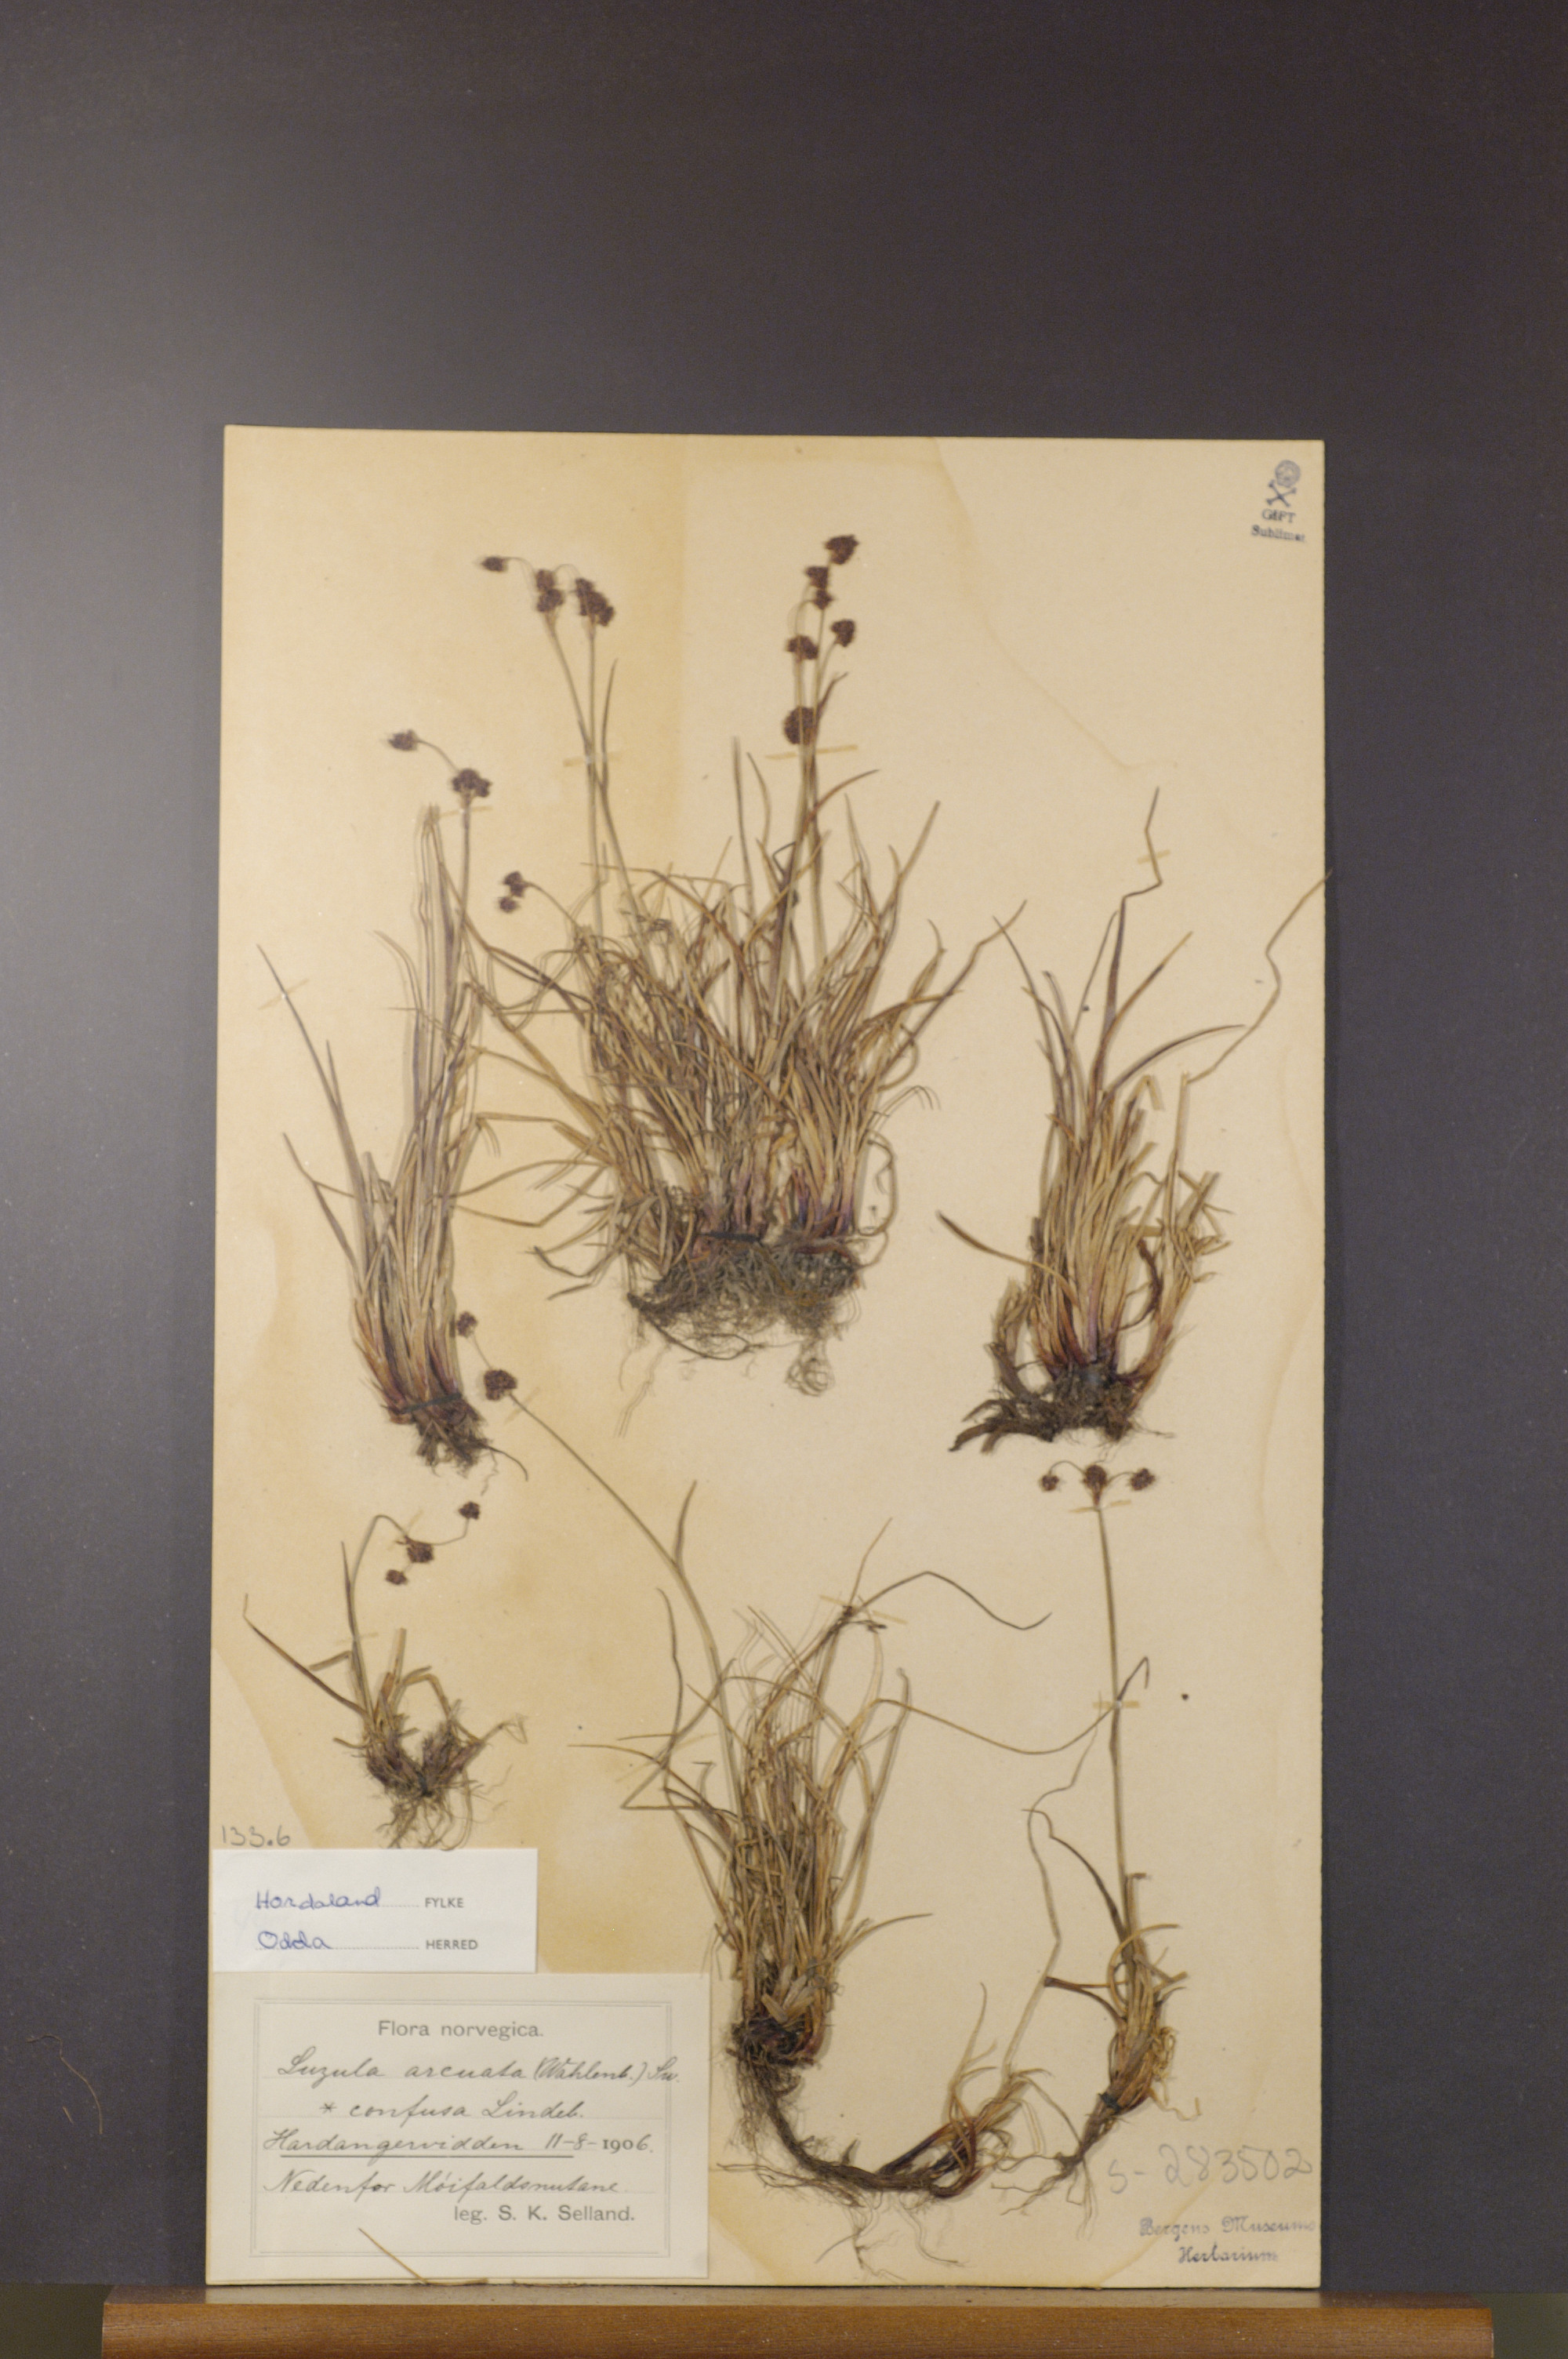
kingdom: Plantae
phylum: Tracheophyta
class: Liliopsida
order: Poales
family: Juncaceae
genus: Luzula
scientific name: Luzula confusa
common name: Northern wood rush
